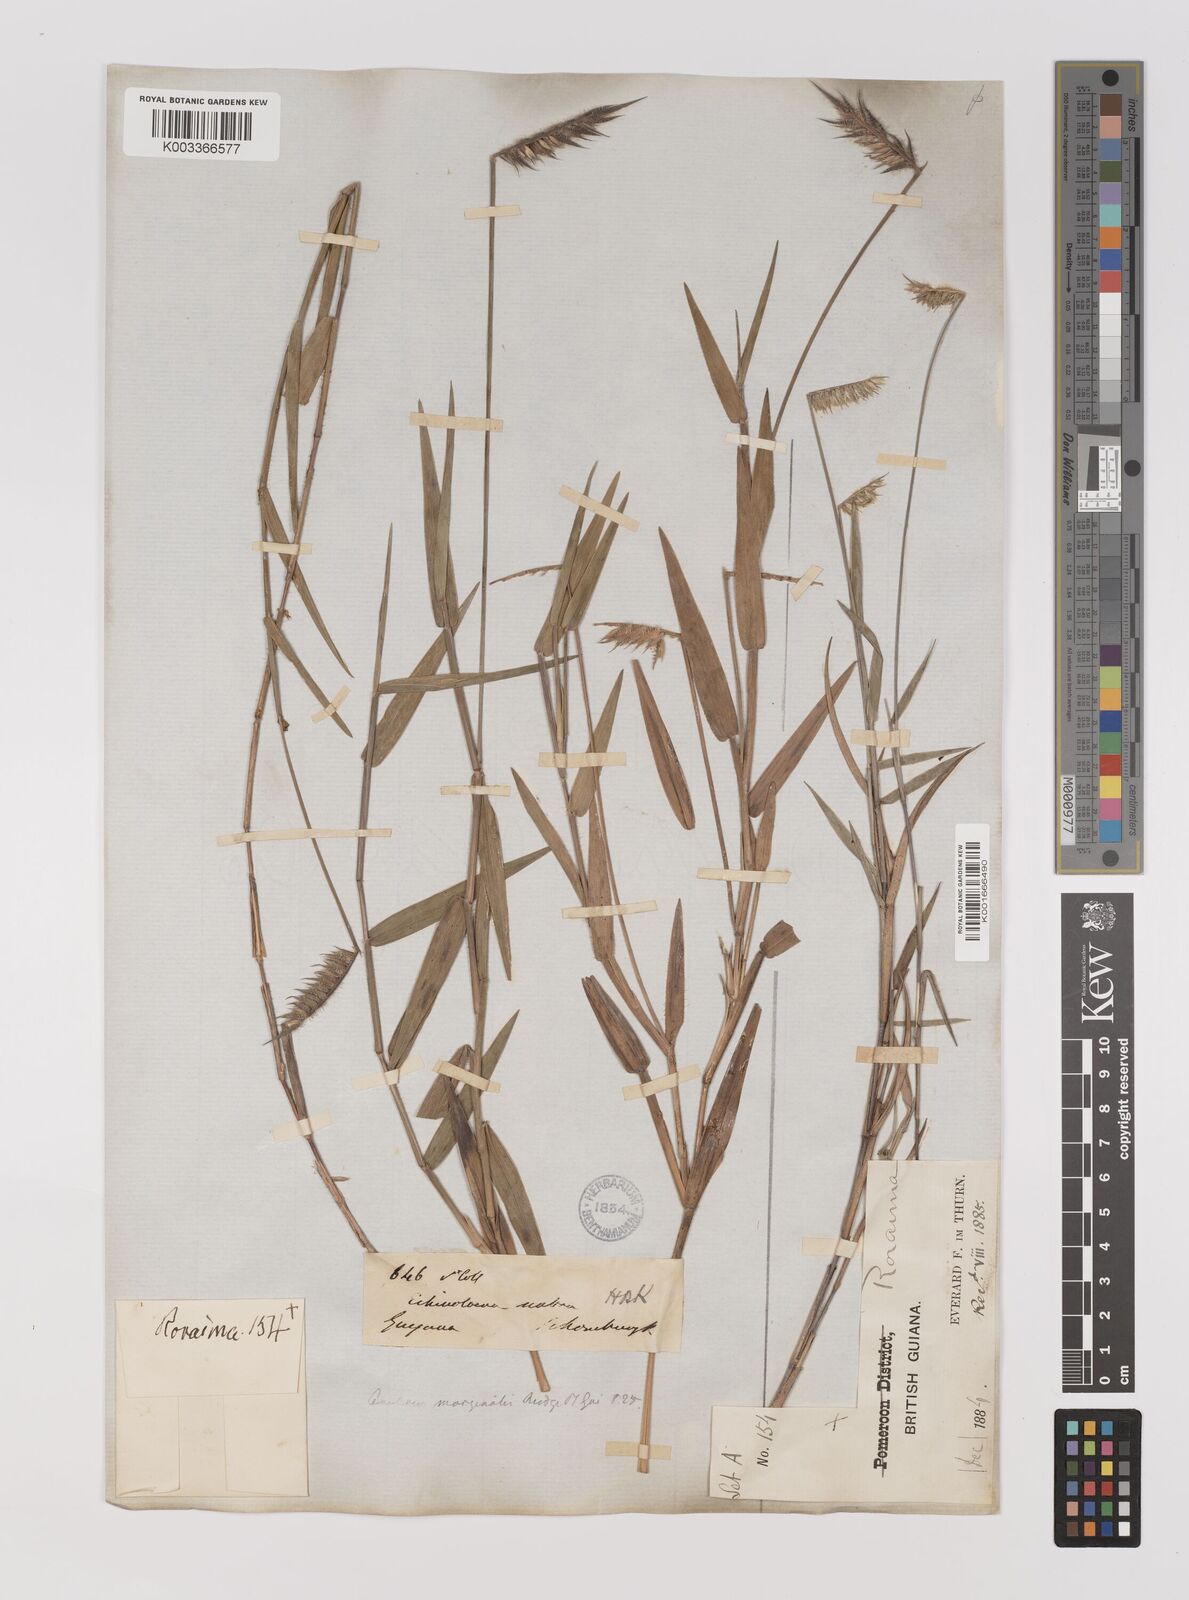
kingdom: Plantae
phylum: Tracheophyta
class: Liliopsida
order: Poales
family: Poaceae
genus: Echinolaena
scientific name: Echinolaena inflexa
